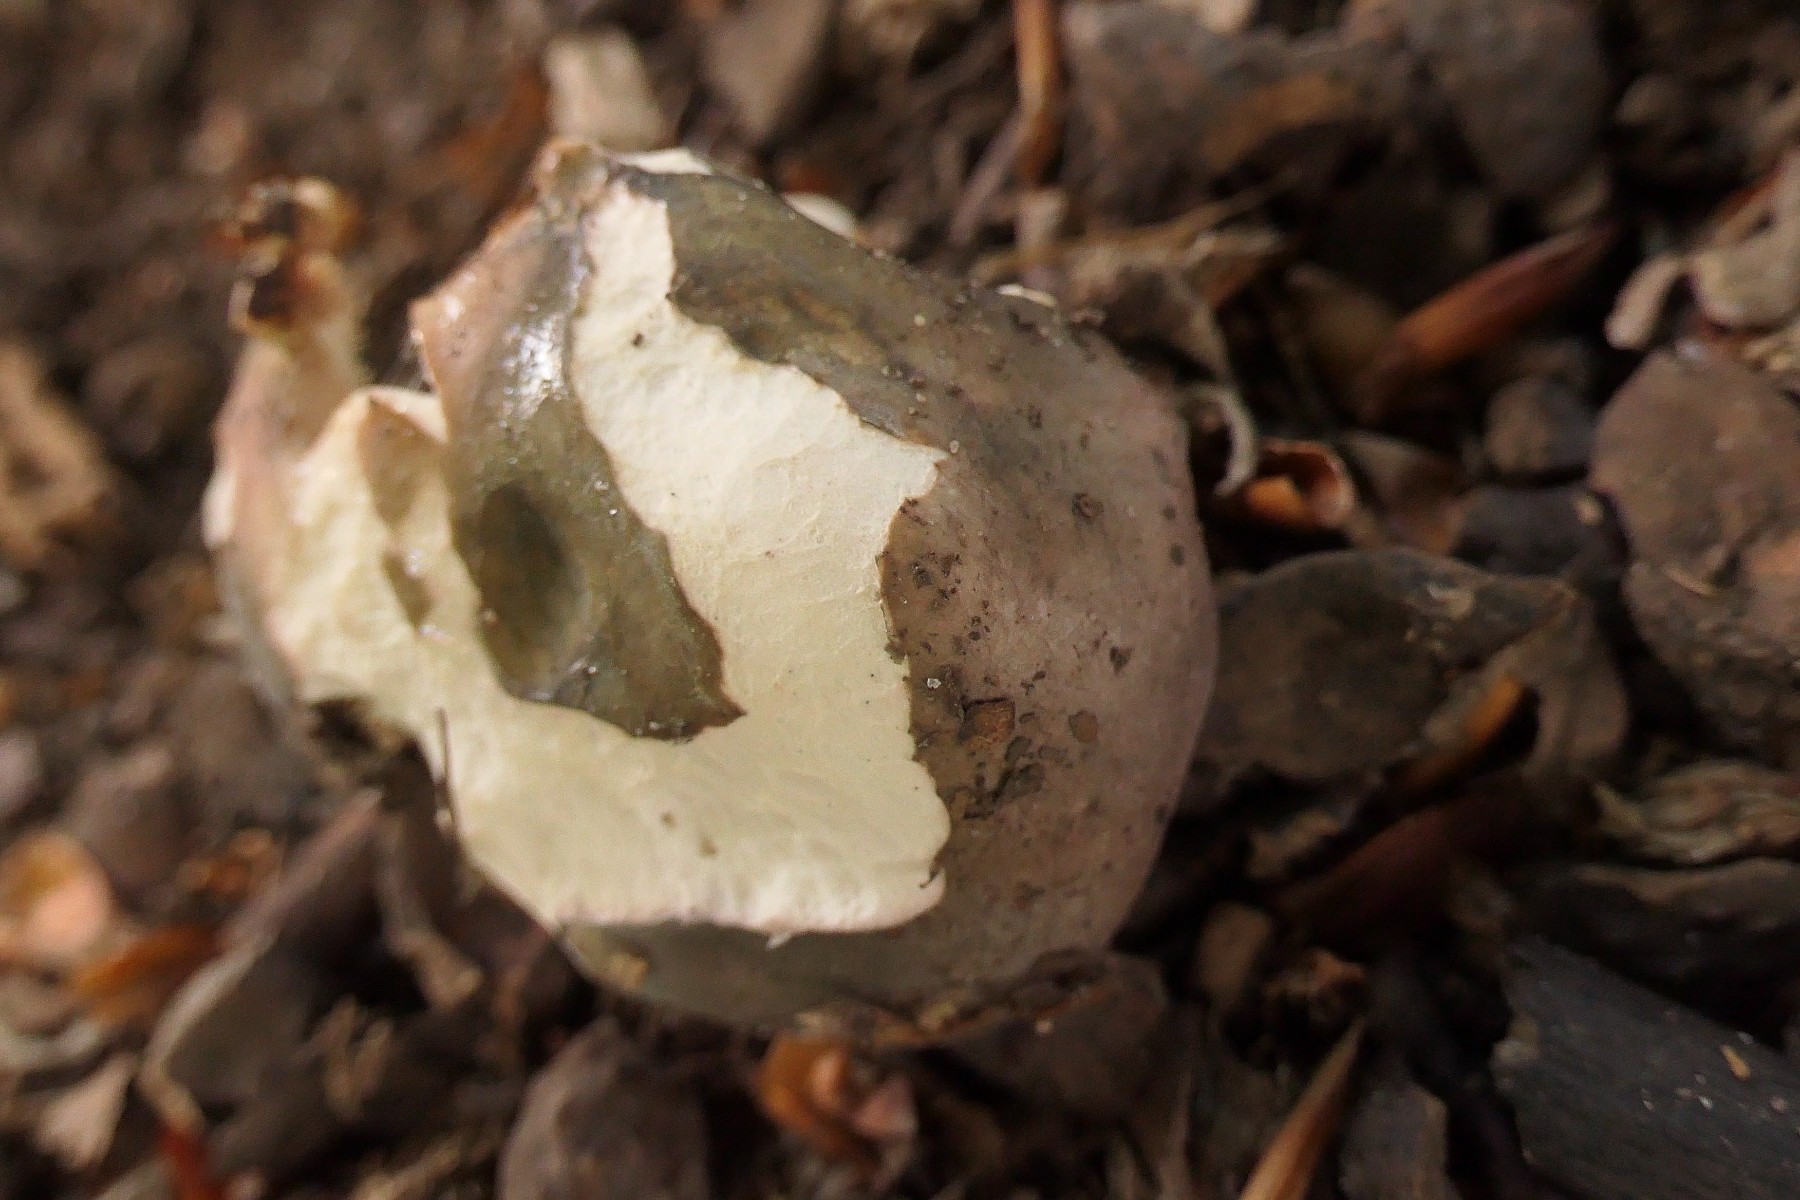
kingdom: Fungi
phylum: Basidiomycota
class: Agaricomycetes
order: Russulales
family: Russulaceae
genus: Russula
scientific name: Russula parazurea
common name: blågrå skørhat
